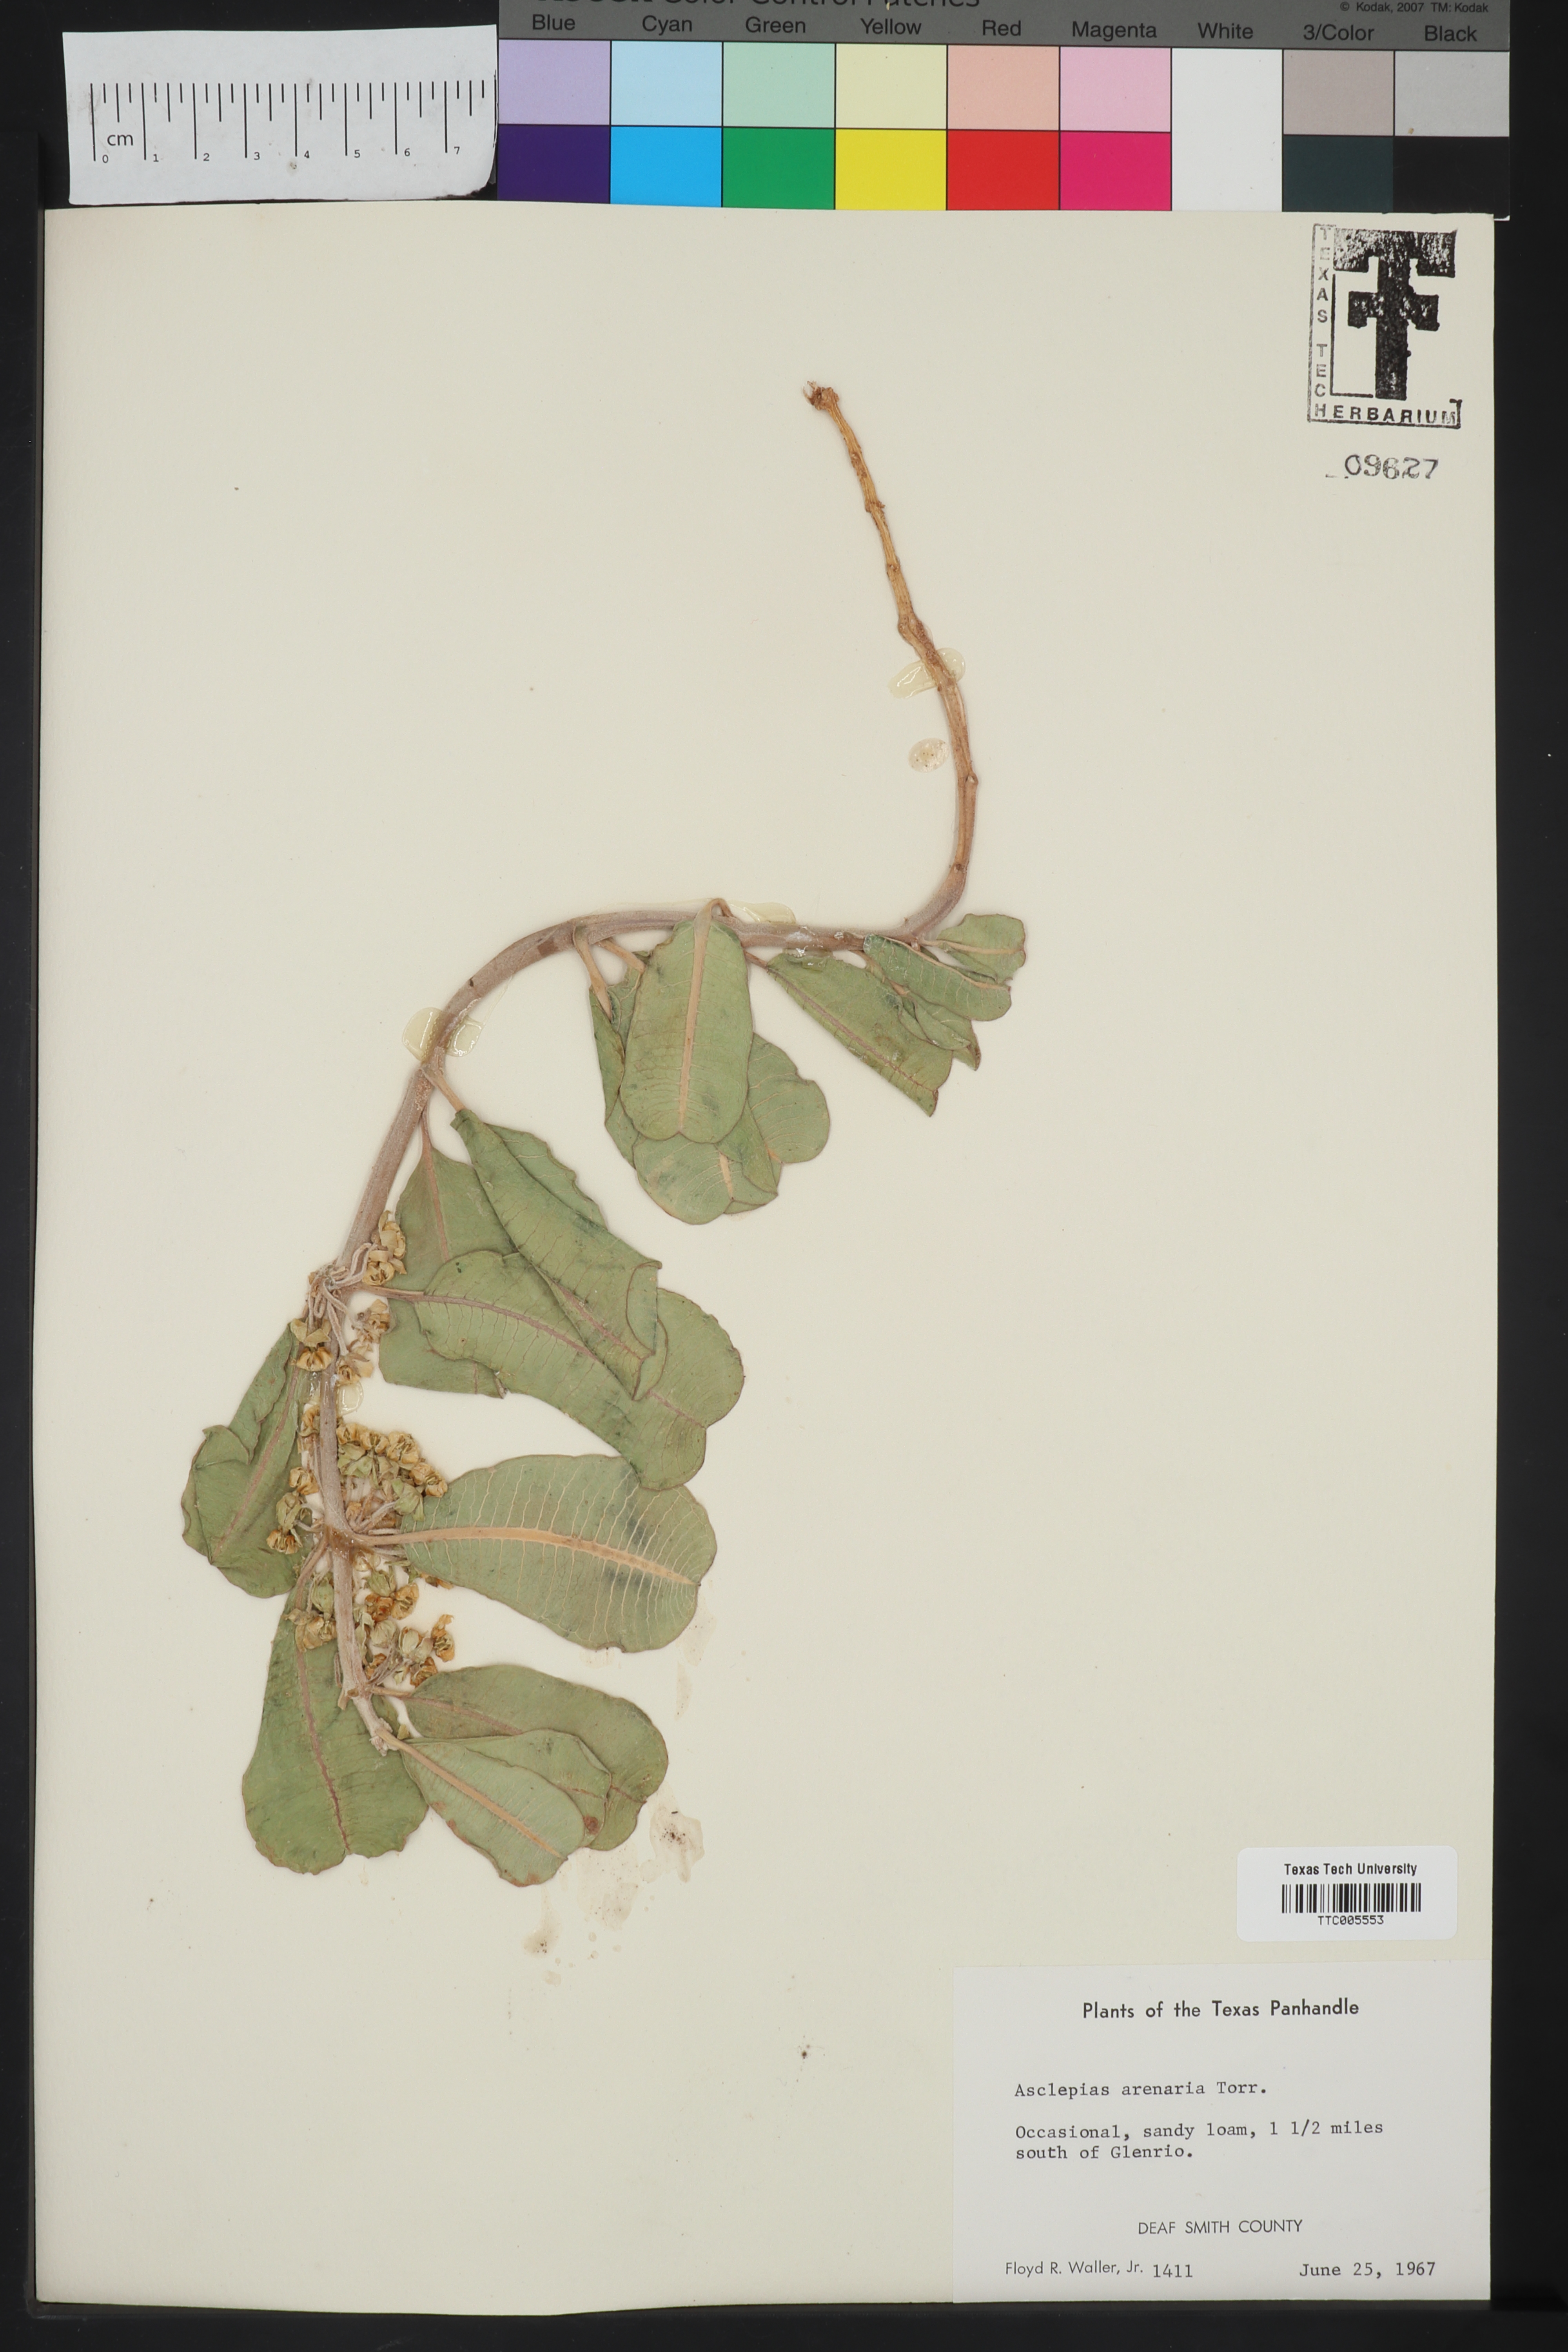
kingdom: Plantae
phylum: Tracheophyta
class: Magnoliopsida
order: Gentianales
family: Apocynaceae
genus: Asclepias
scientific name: Asclepias arenaria
